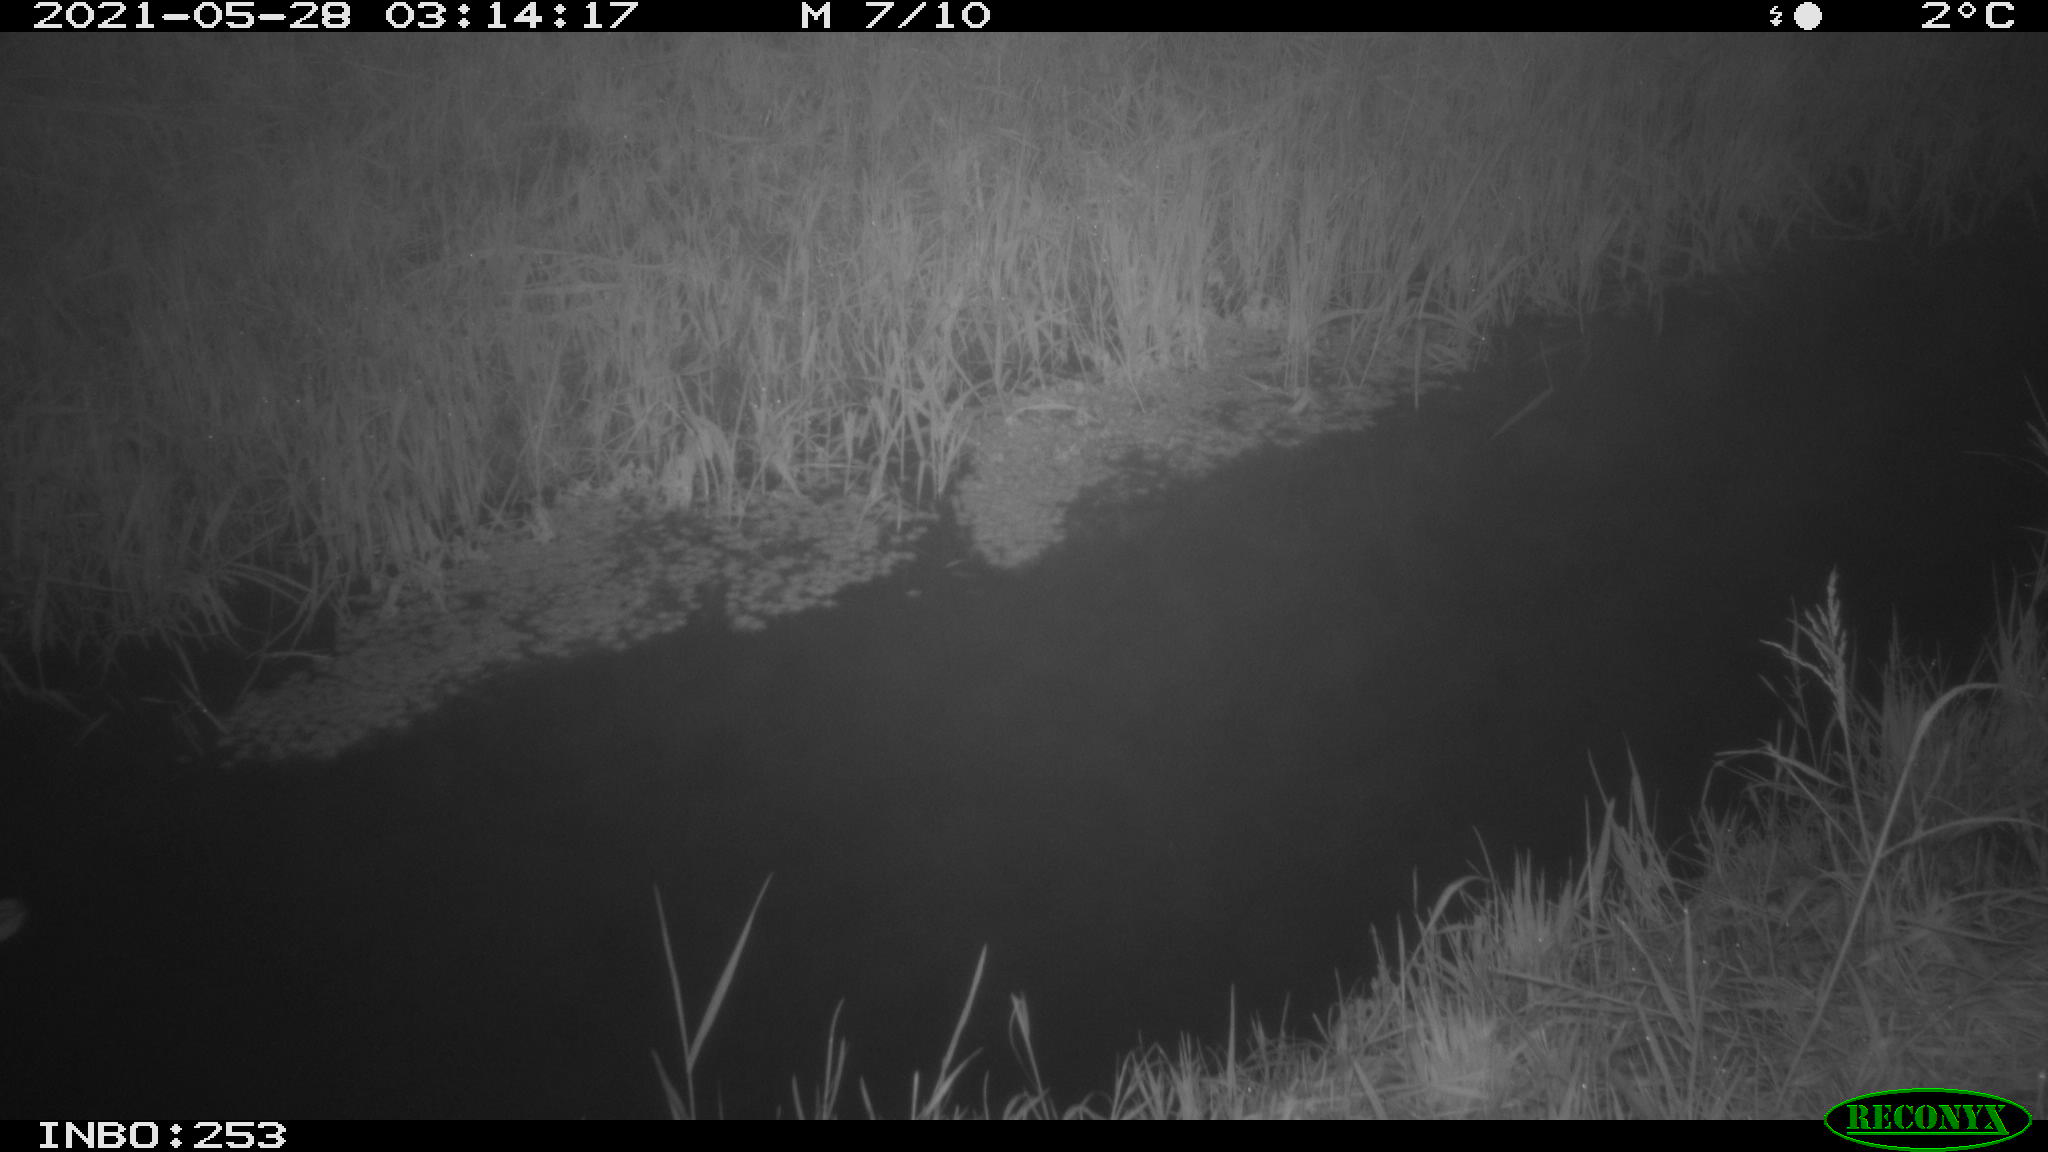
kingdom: Animalia
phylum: Chordata
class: Aves
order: Anseriformes
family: Anatidae
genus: Anas
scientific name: Anas
